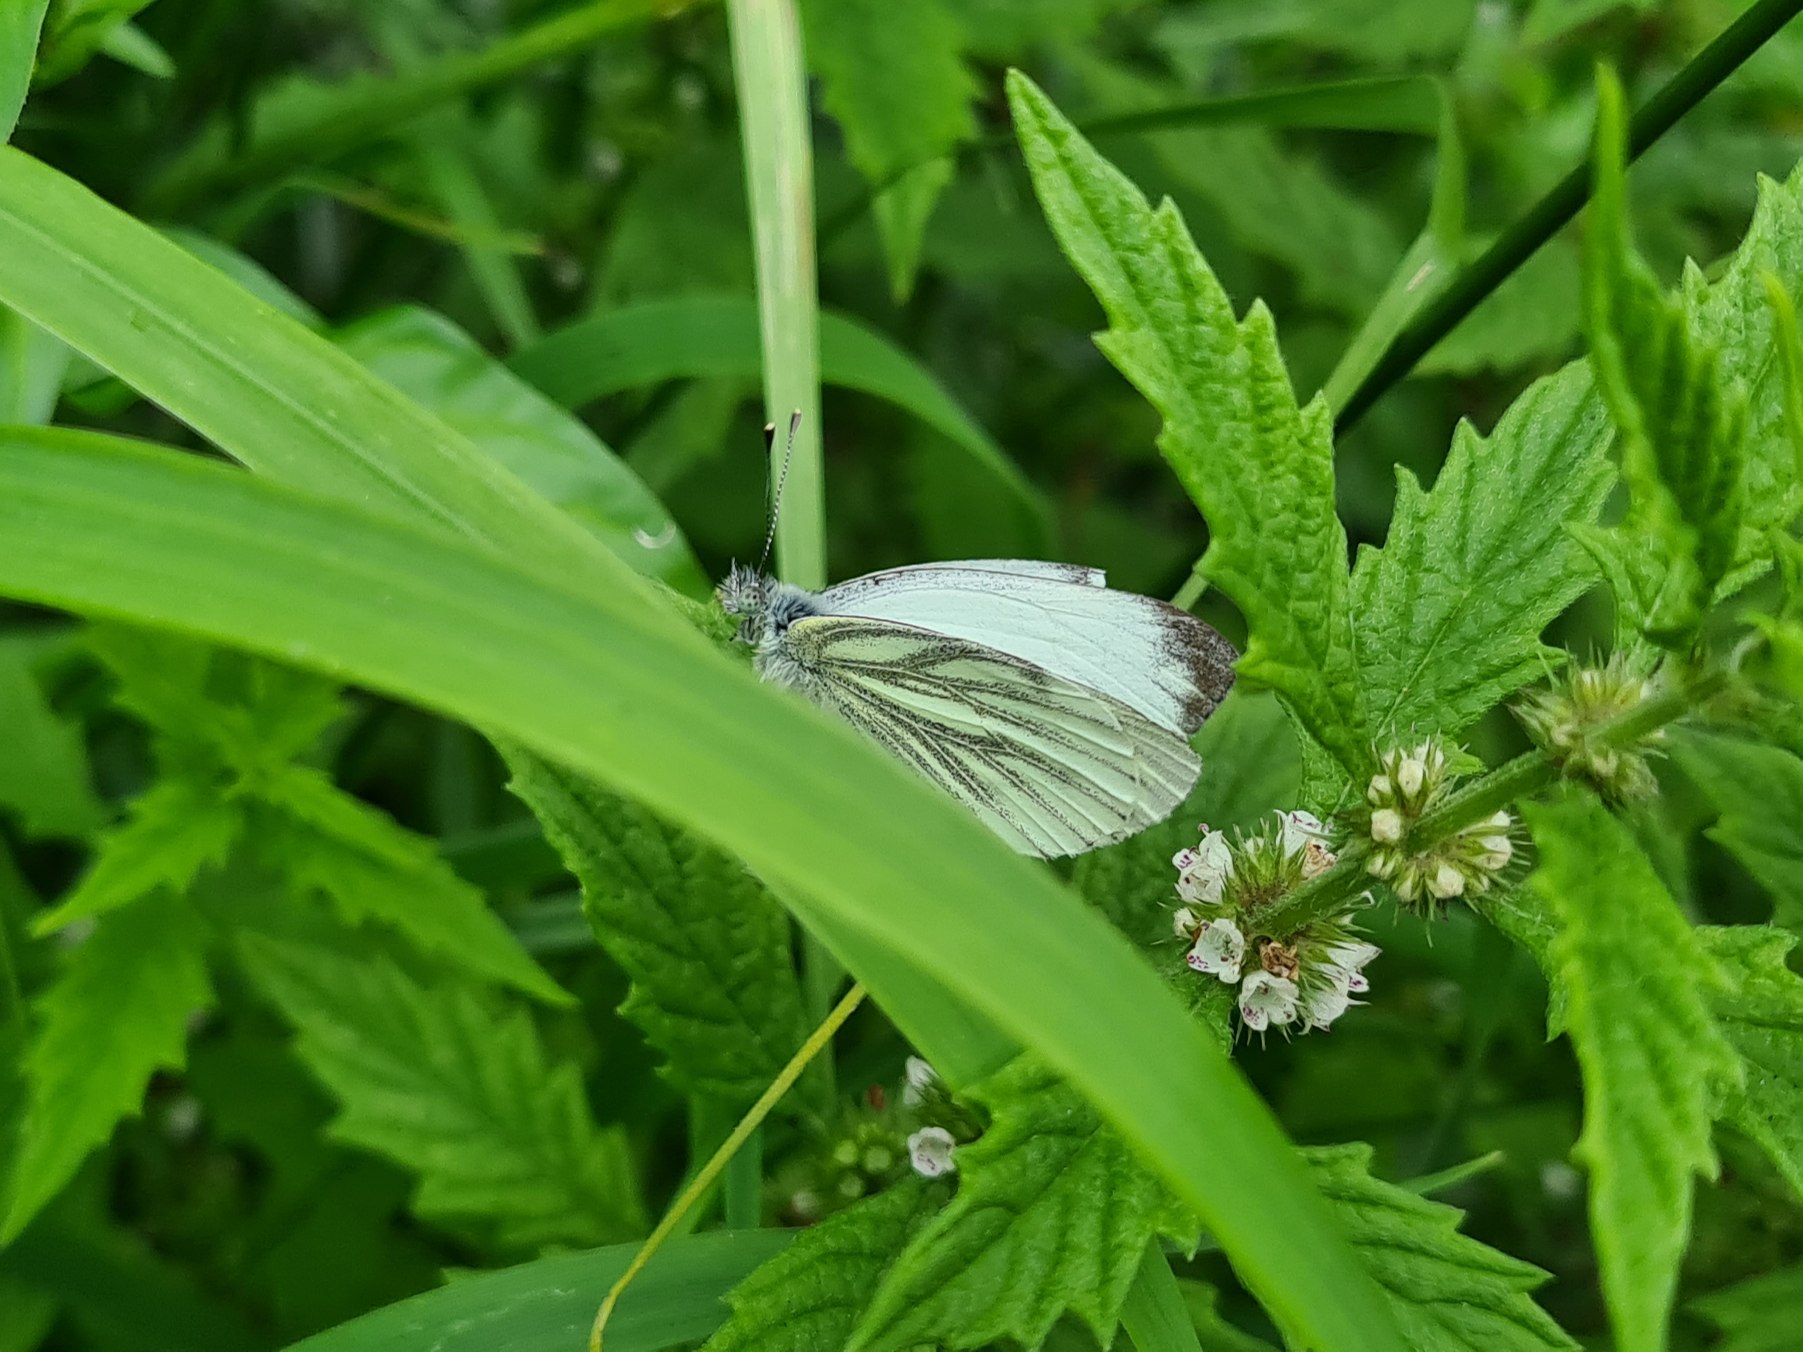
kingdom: Animalia
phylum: Arthropoda
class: Insecta
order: Lepidoptera
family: Pieridae
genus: Pieris
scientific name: Pieris napi
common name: Grønåret kålsommerfugl
